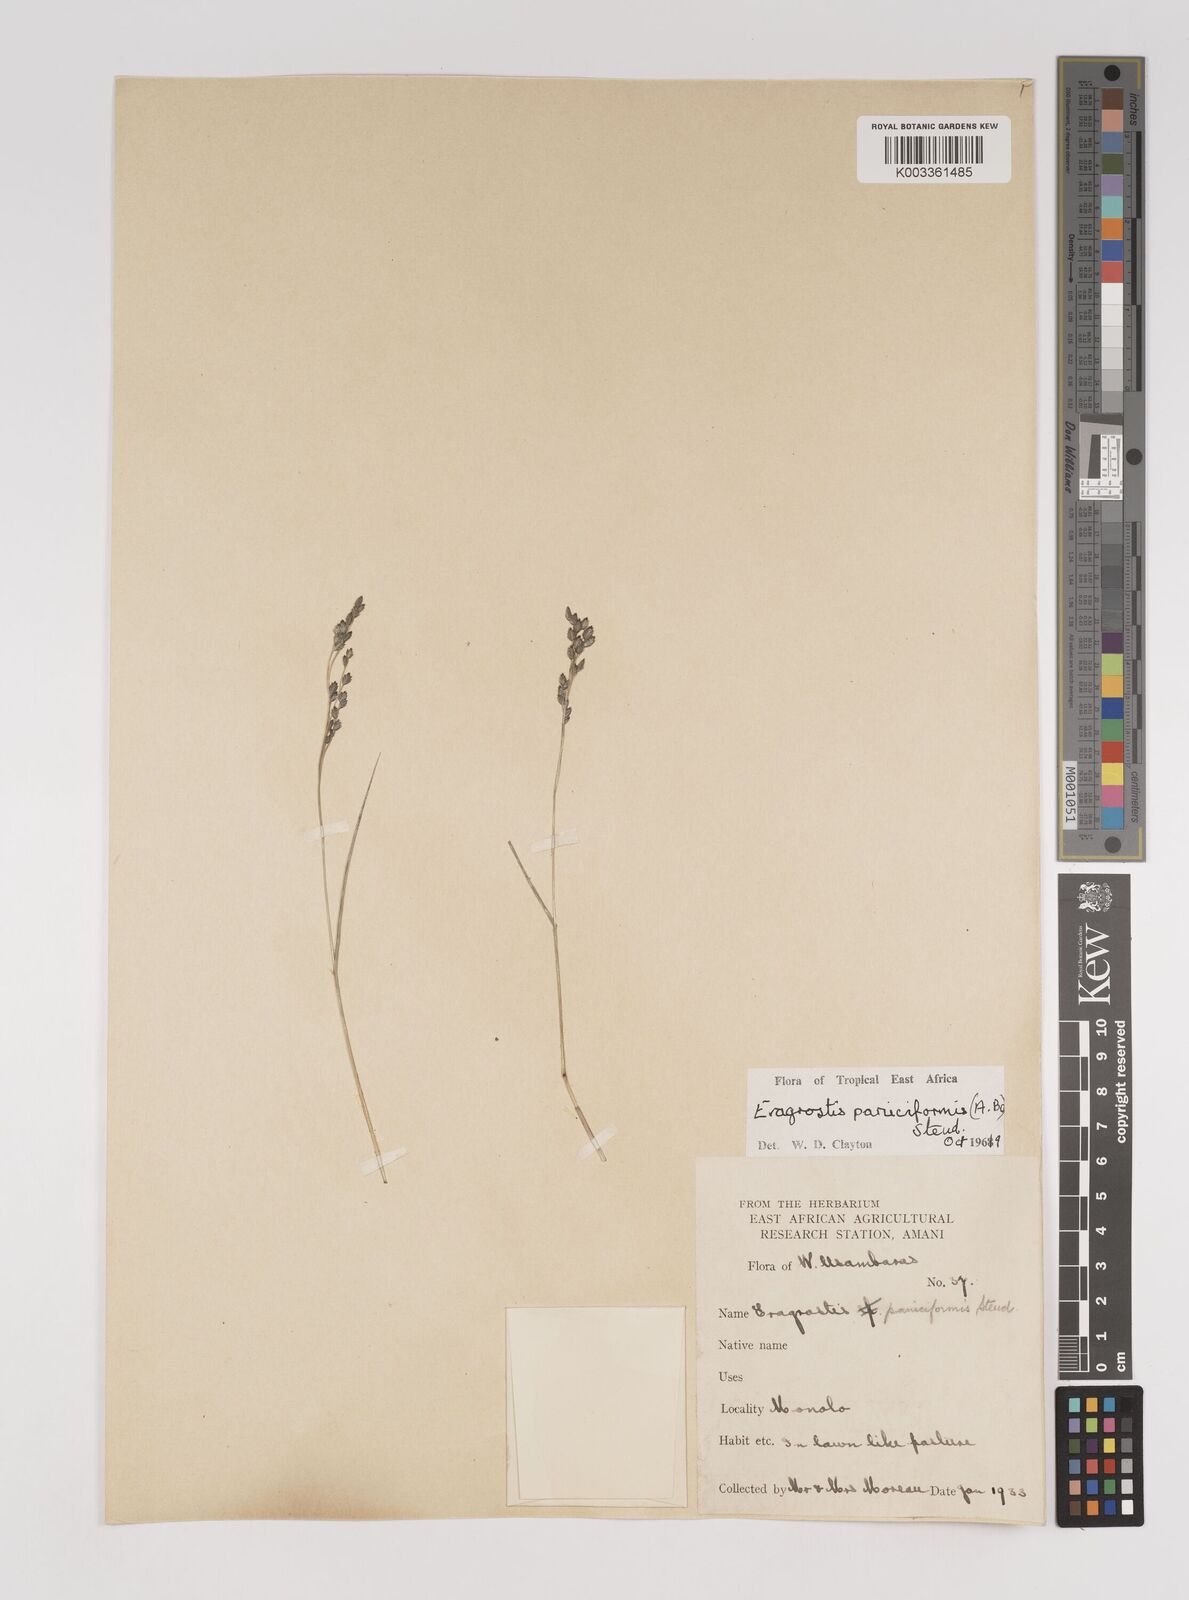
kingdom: Plantae
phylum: Tracheophyta
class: Liliopsida
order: Poales
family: Poaceae
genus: Eragrostis
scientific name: Eragrostis paniciformis
